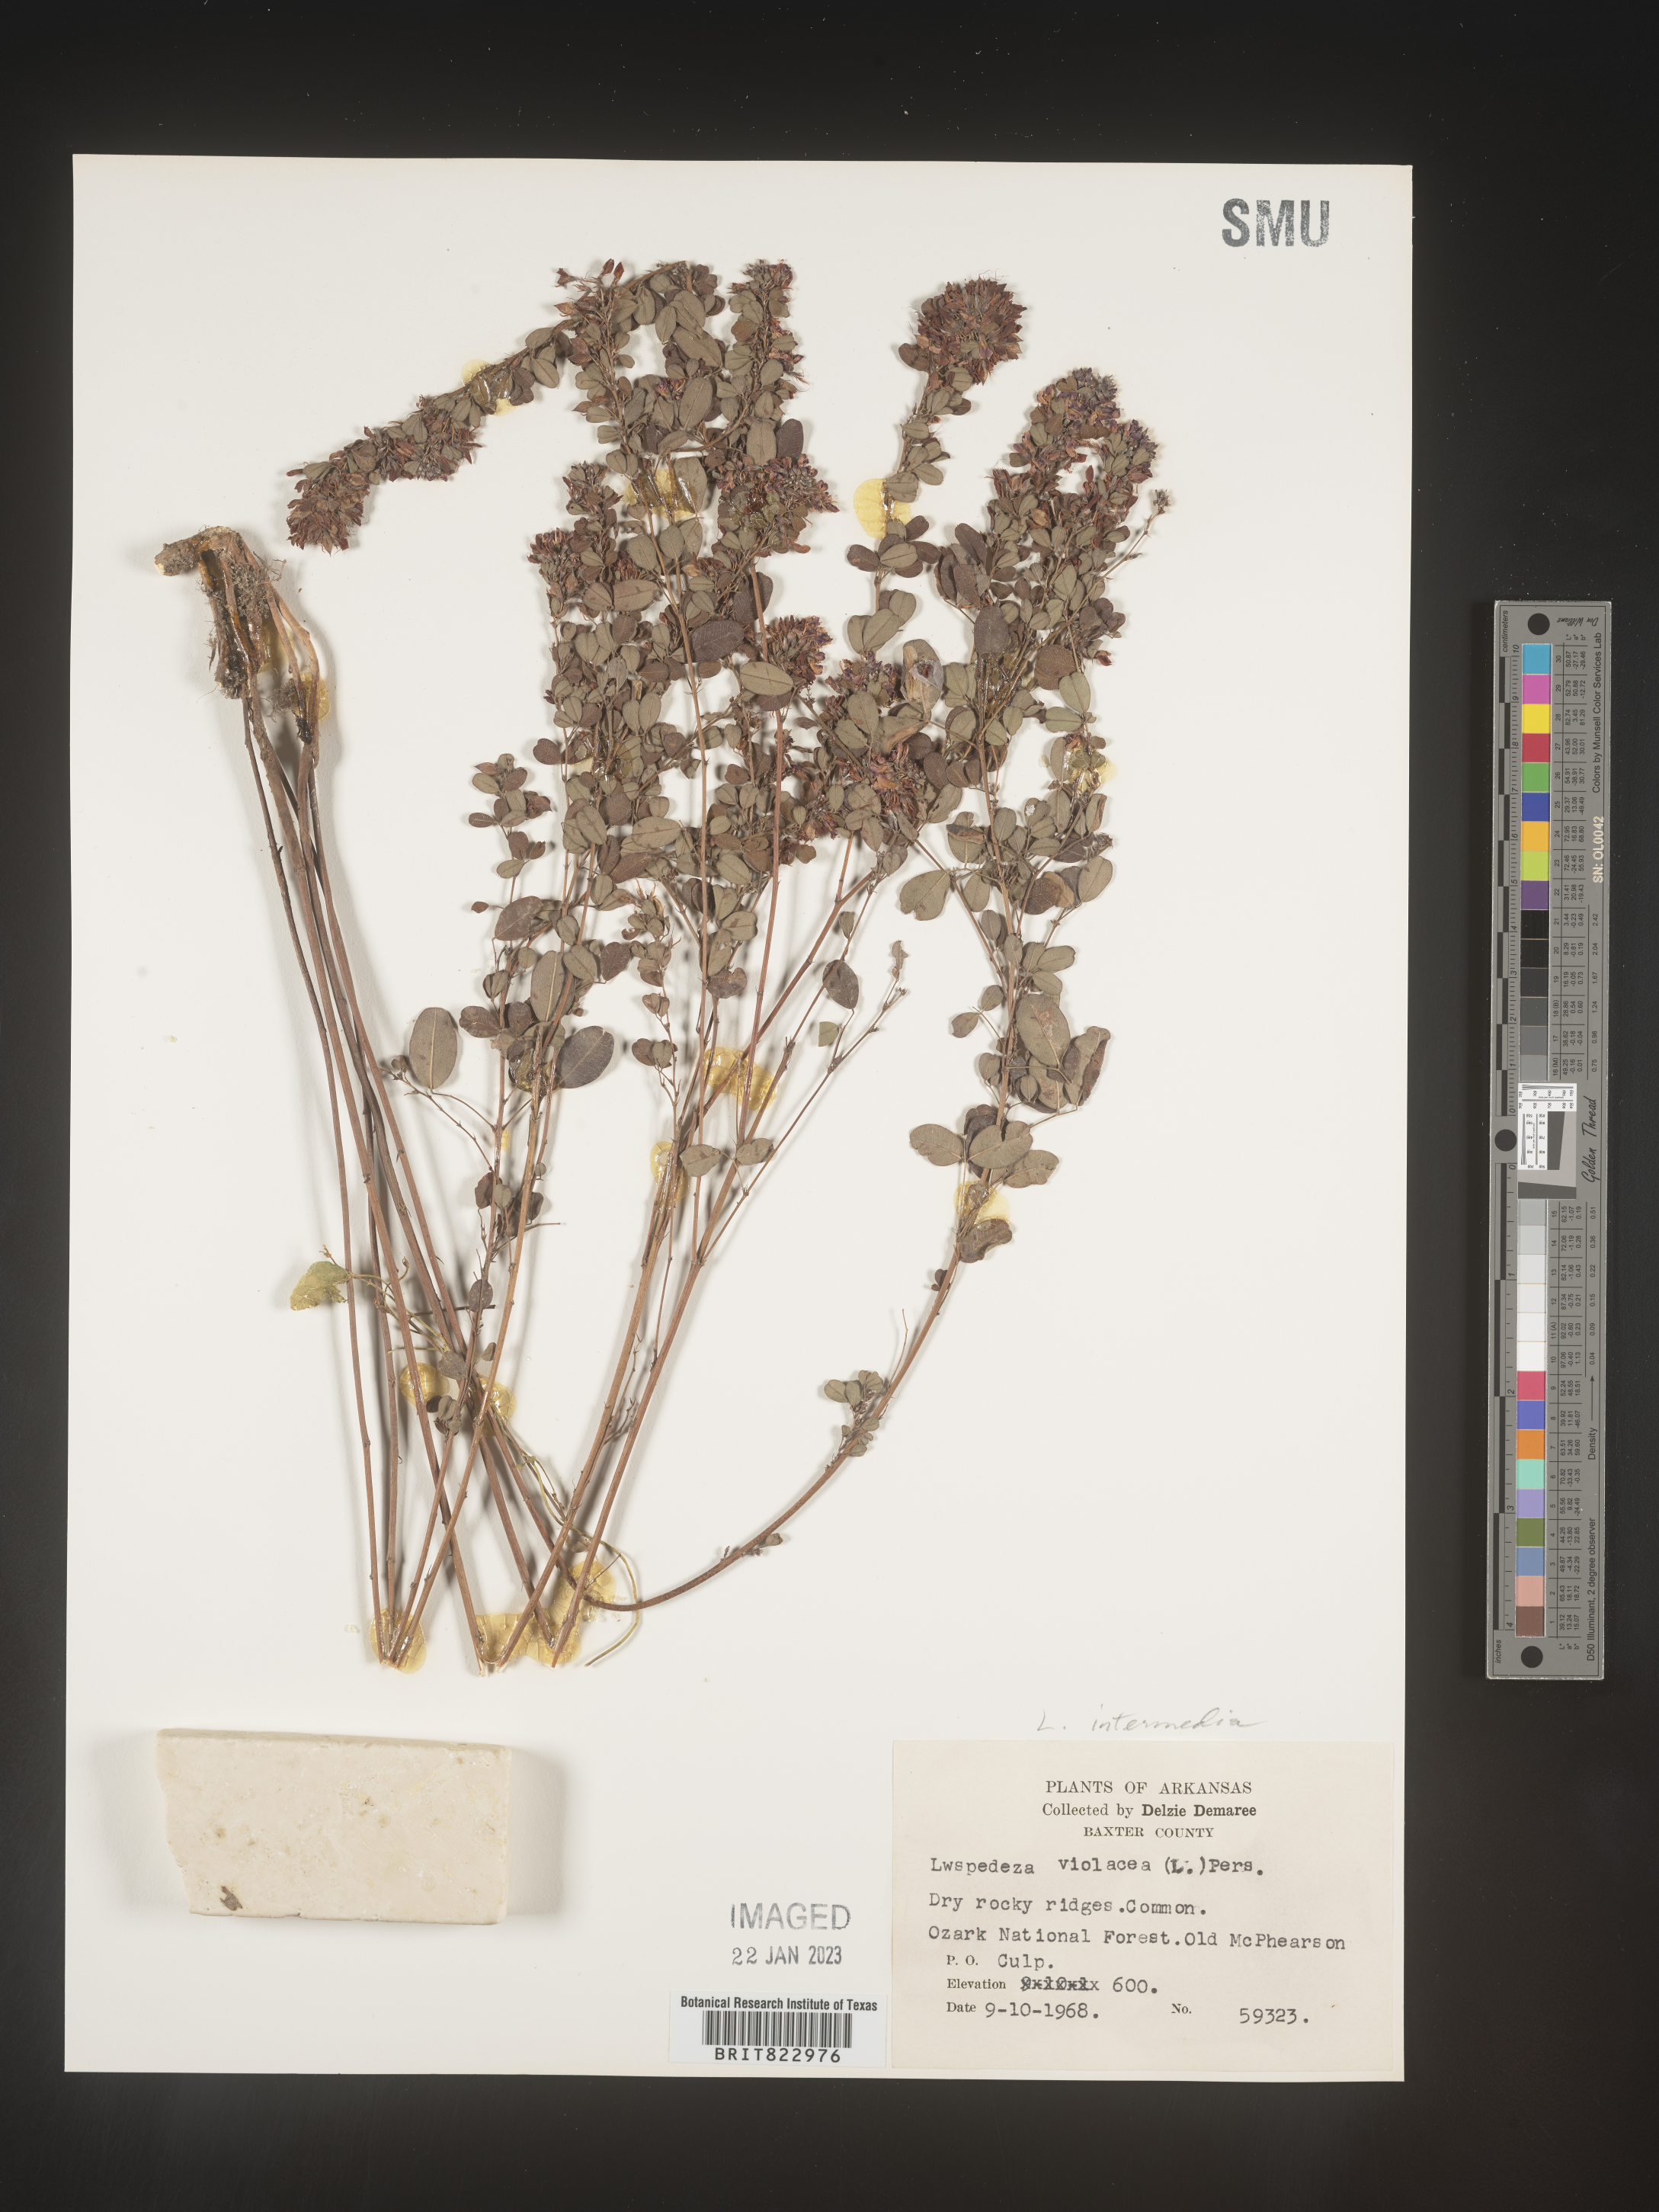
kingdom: Plantae
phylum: Tracheophyta
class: Magnoliopsida
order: Fabales
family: Fabaceae
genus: Lespedeza
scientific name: Lespedeza
